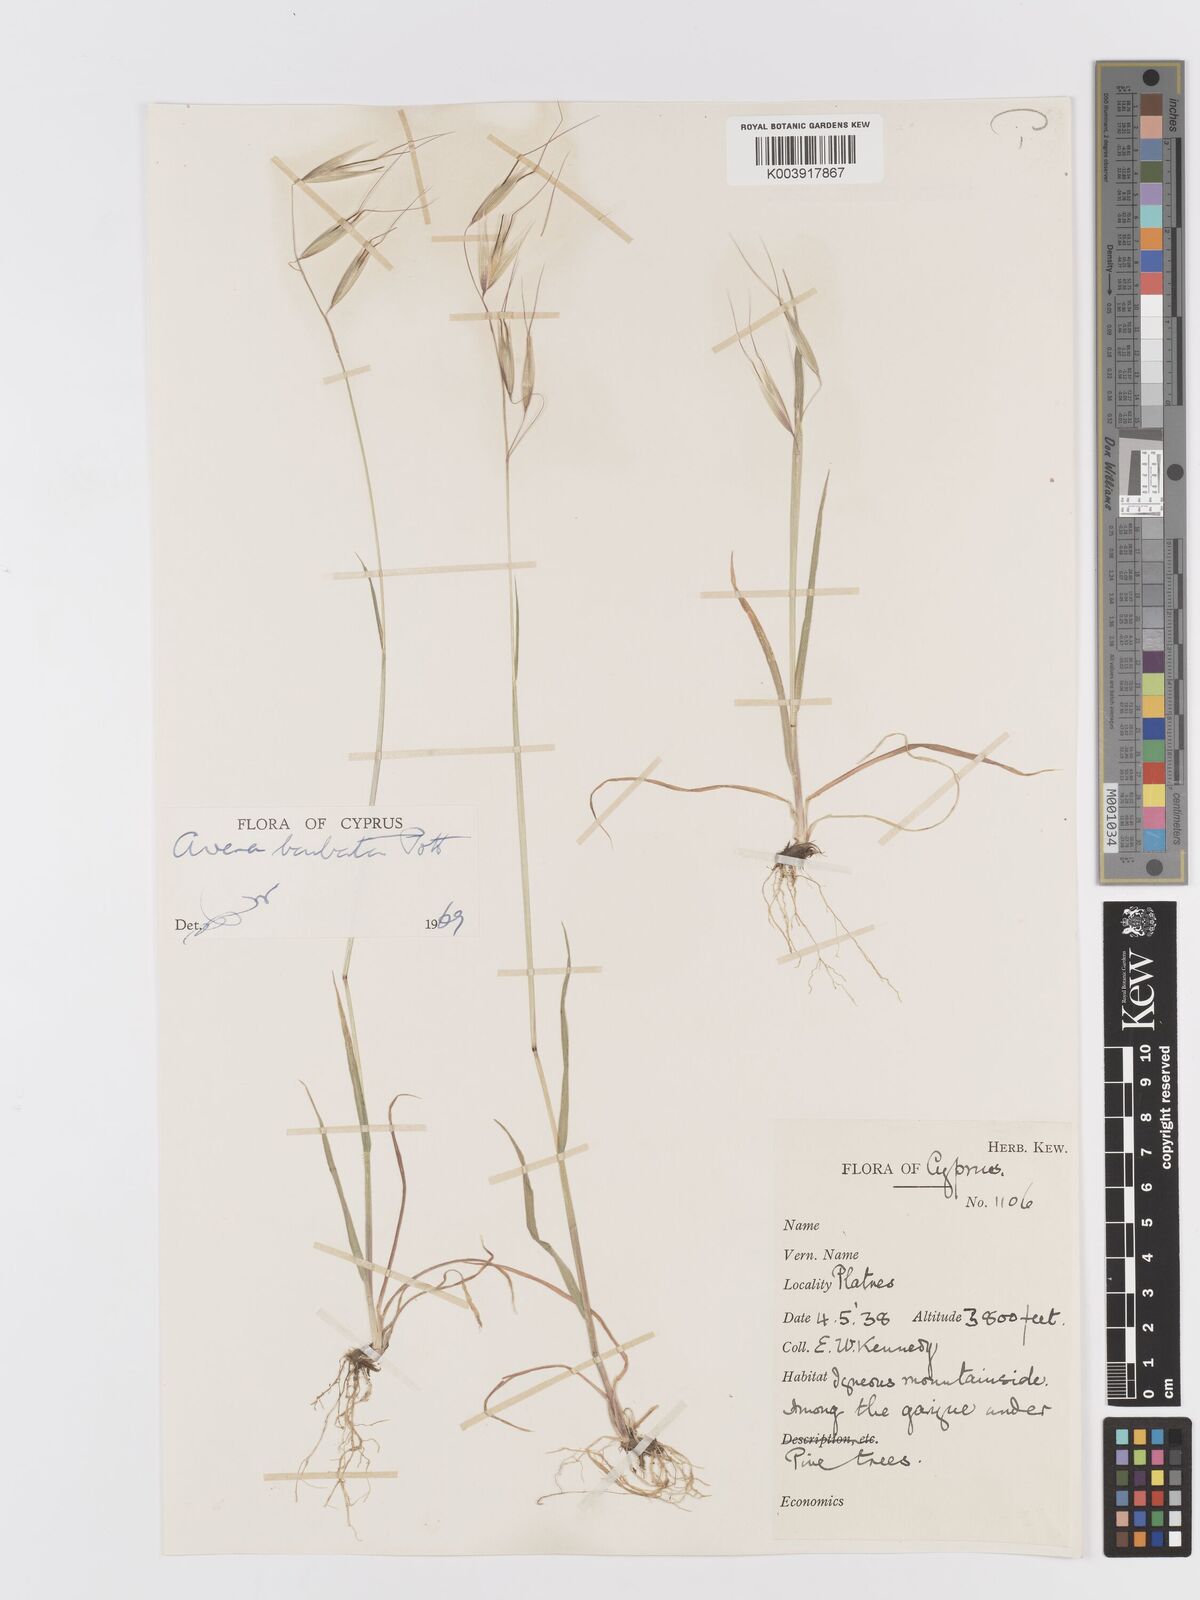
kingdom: Plantae
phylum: Tracheophyta
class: Liliopsida
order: Poales
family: Poaceae
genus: Avena
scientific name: Avena
